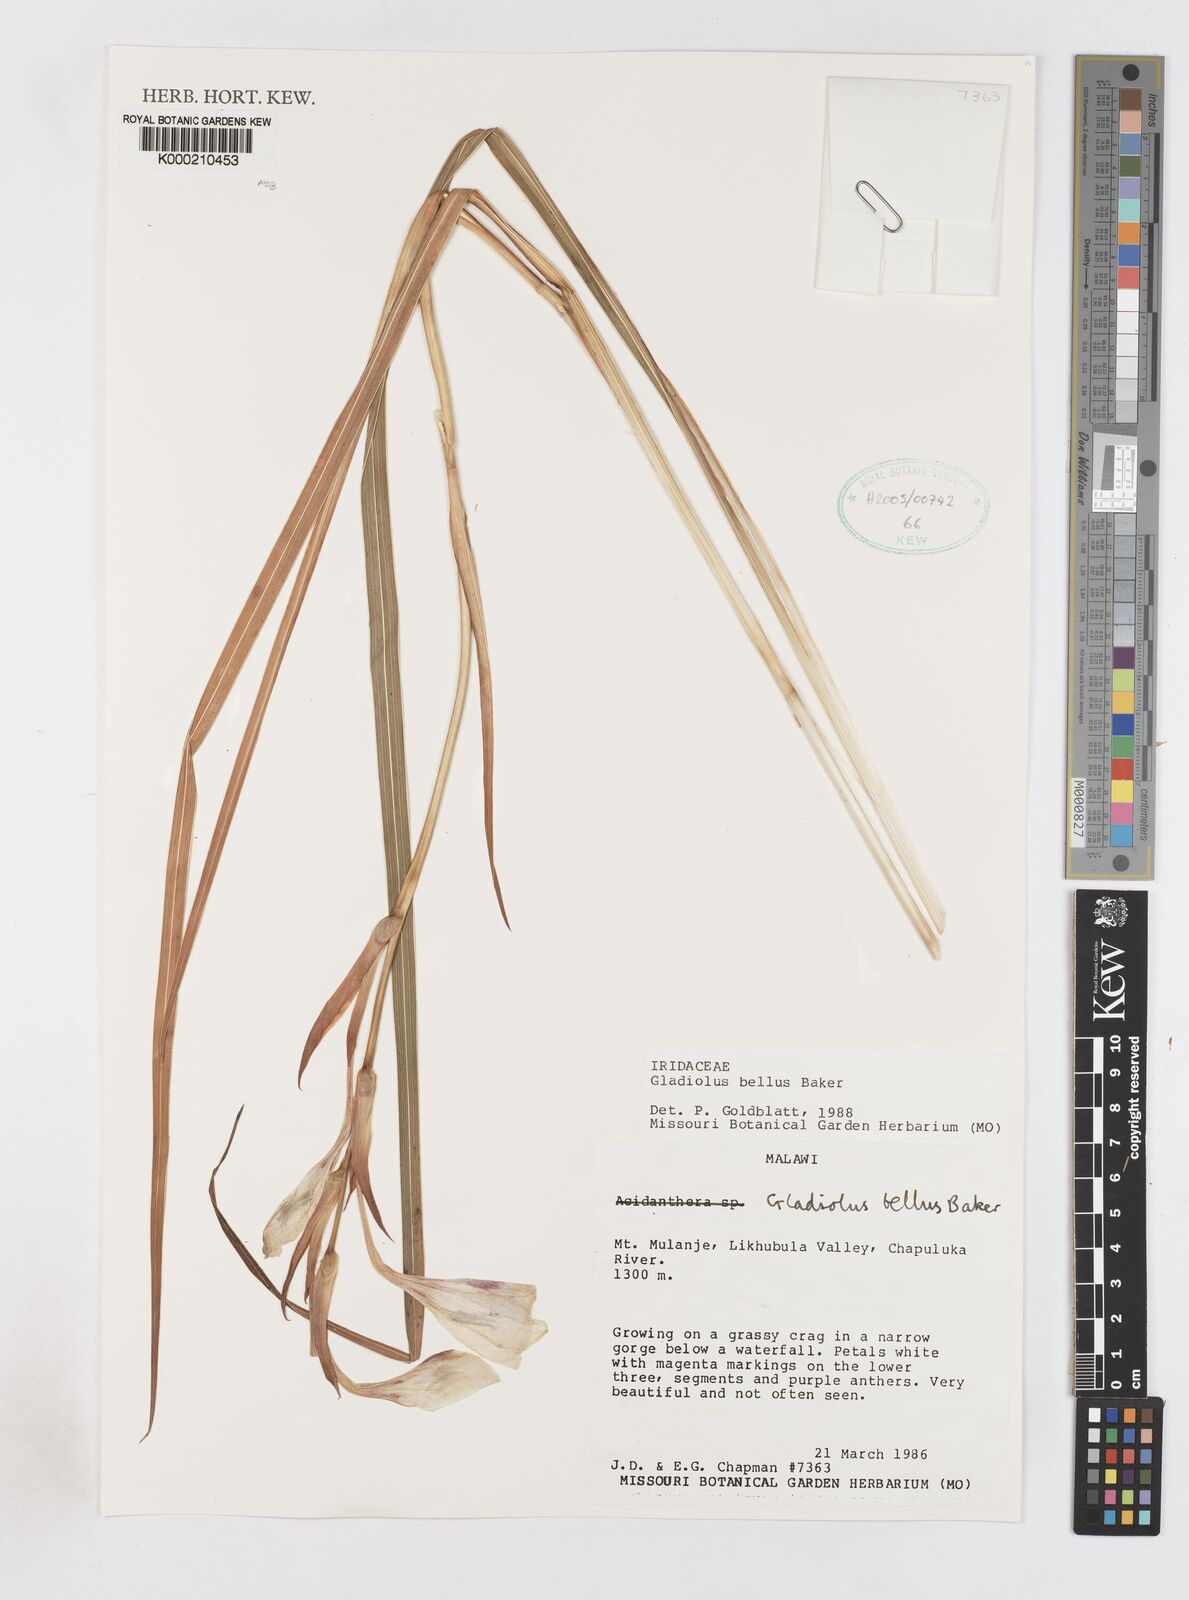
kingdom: Plantae
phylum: Tracheophyta
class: Liliopsida
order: Asparagales
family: Iridaceae
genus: Gladiolus
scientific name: Gladiolus bellus
